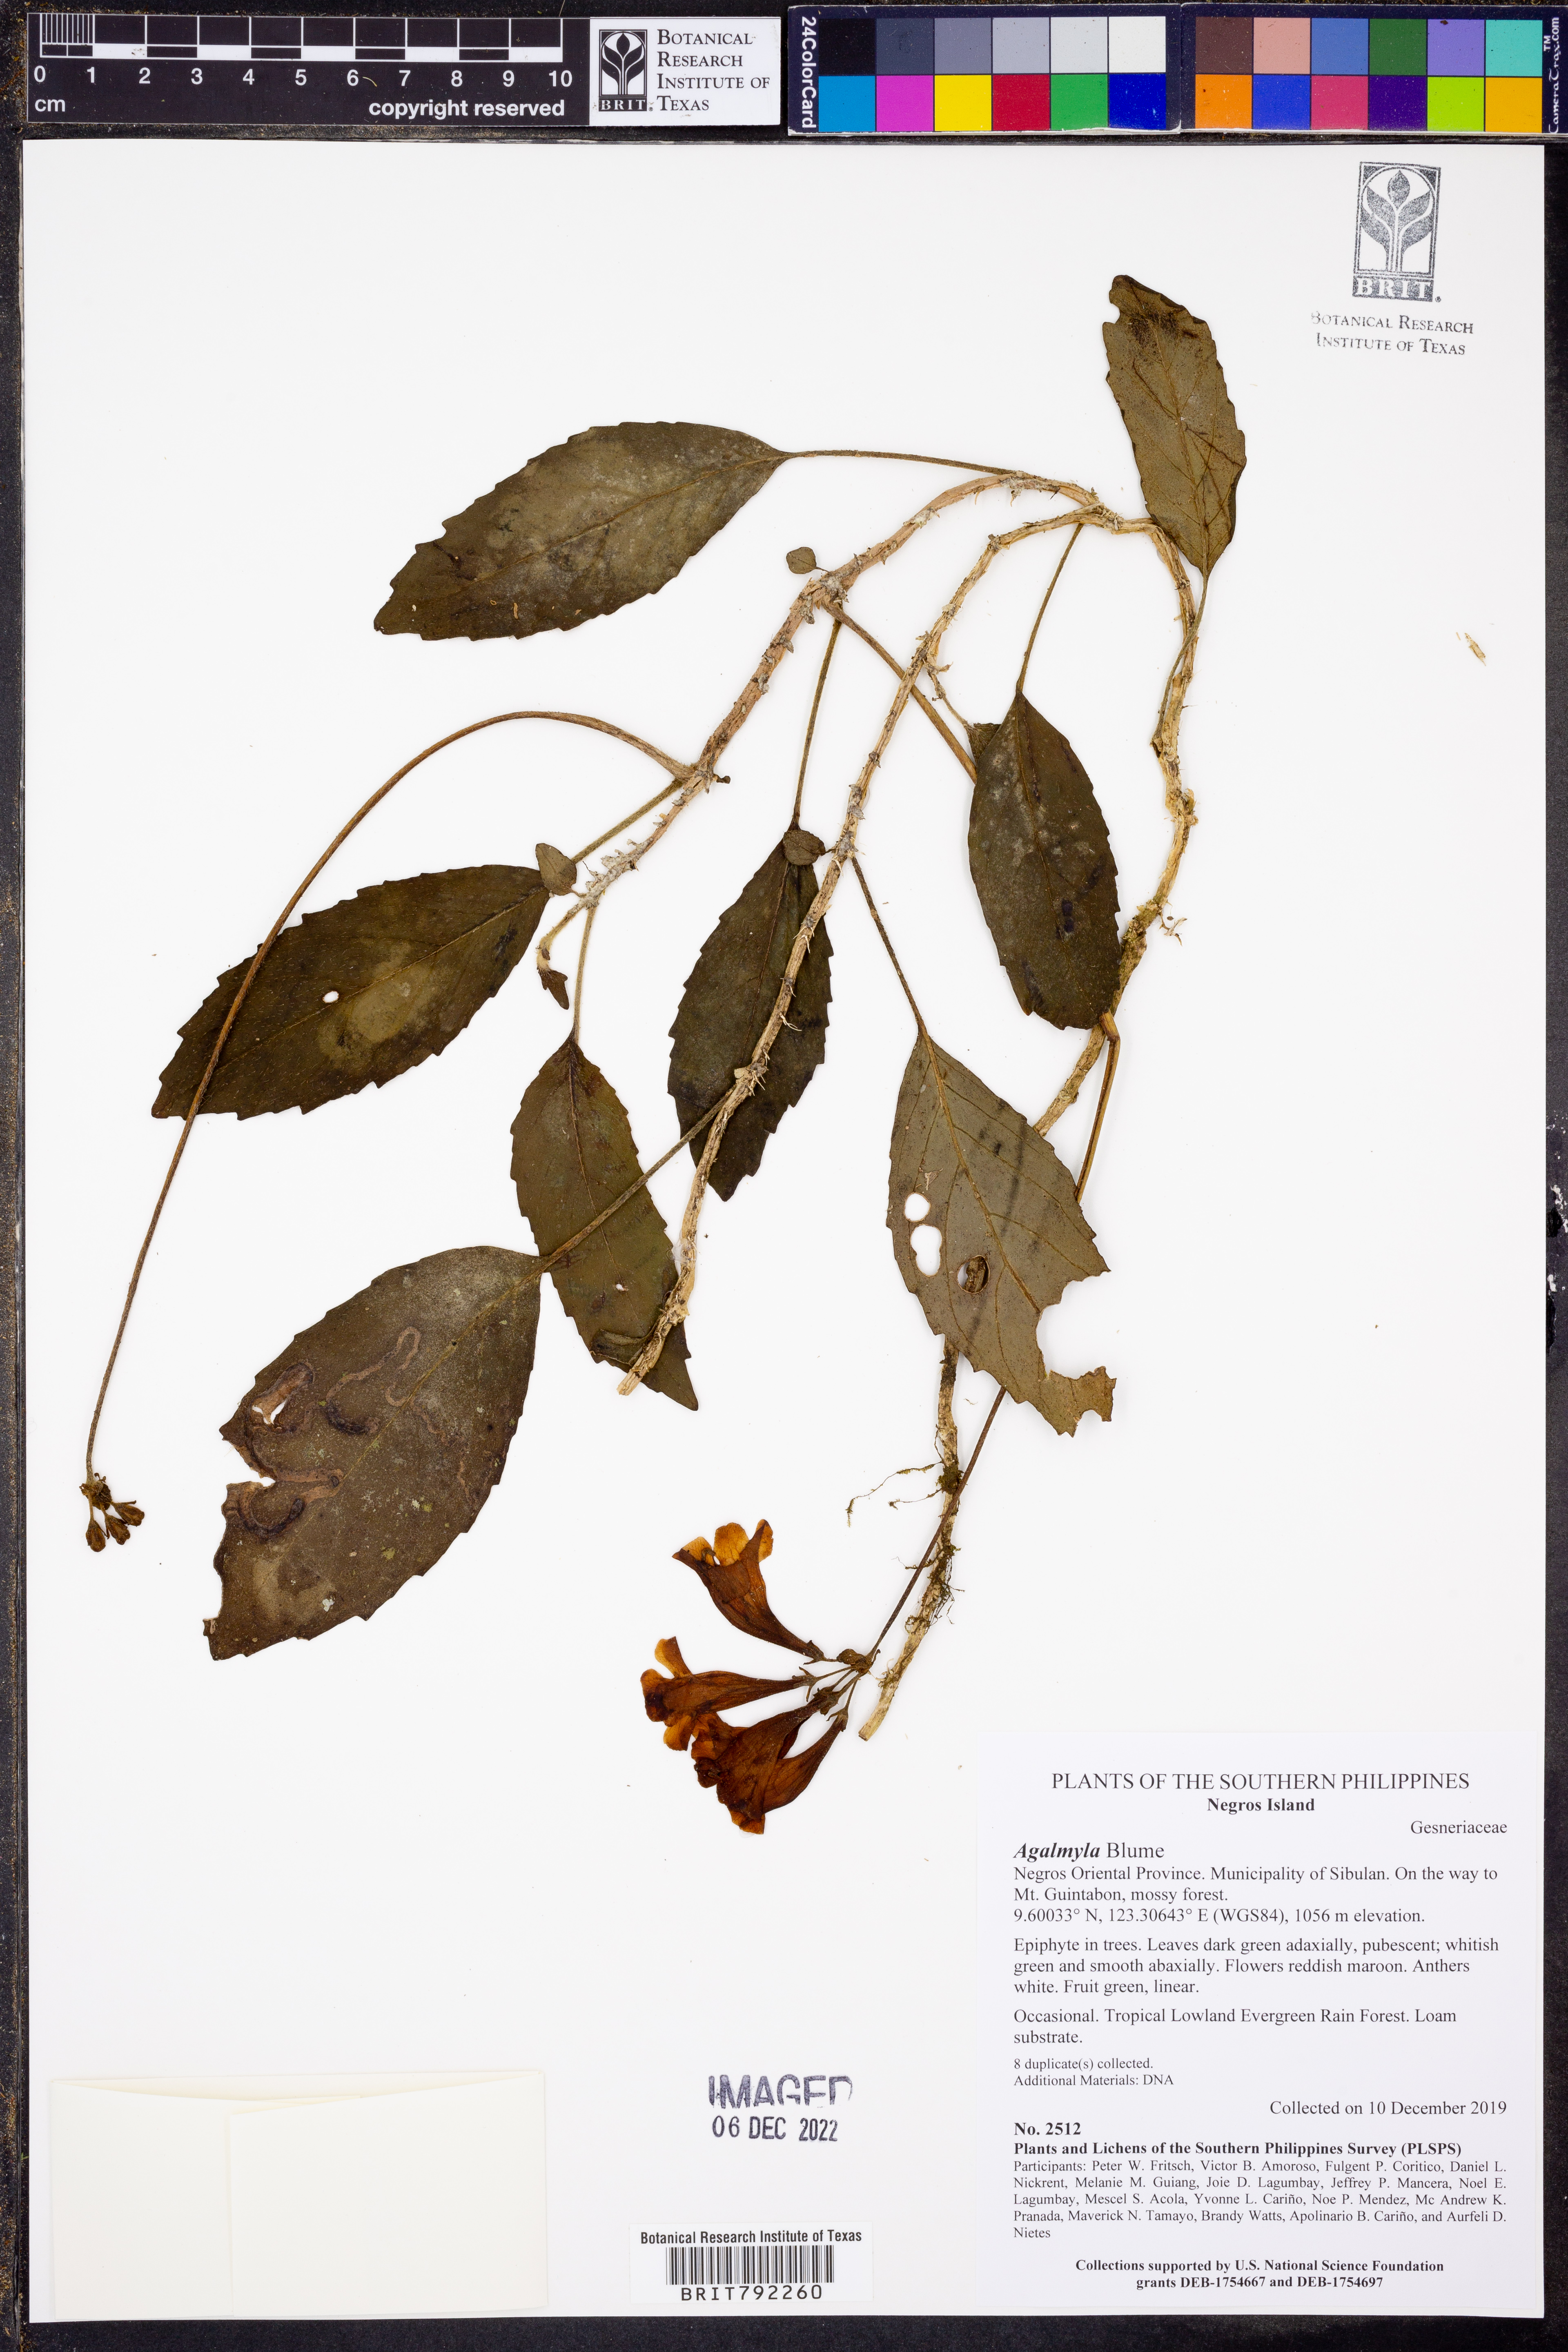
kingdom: Plantae
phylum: Tracheophyta
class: Magnoliopsida
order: Lamiales
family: Gesneriaceae
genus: Agalmyla
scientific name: Agalmyla
